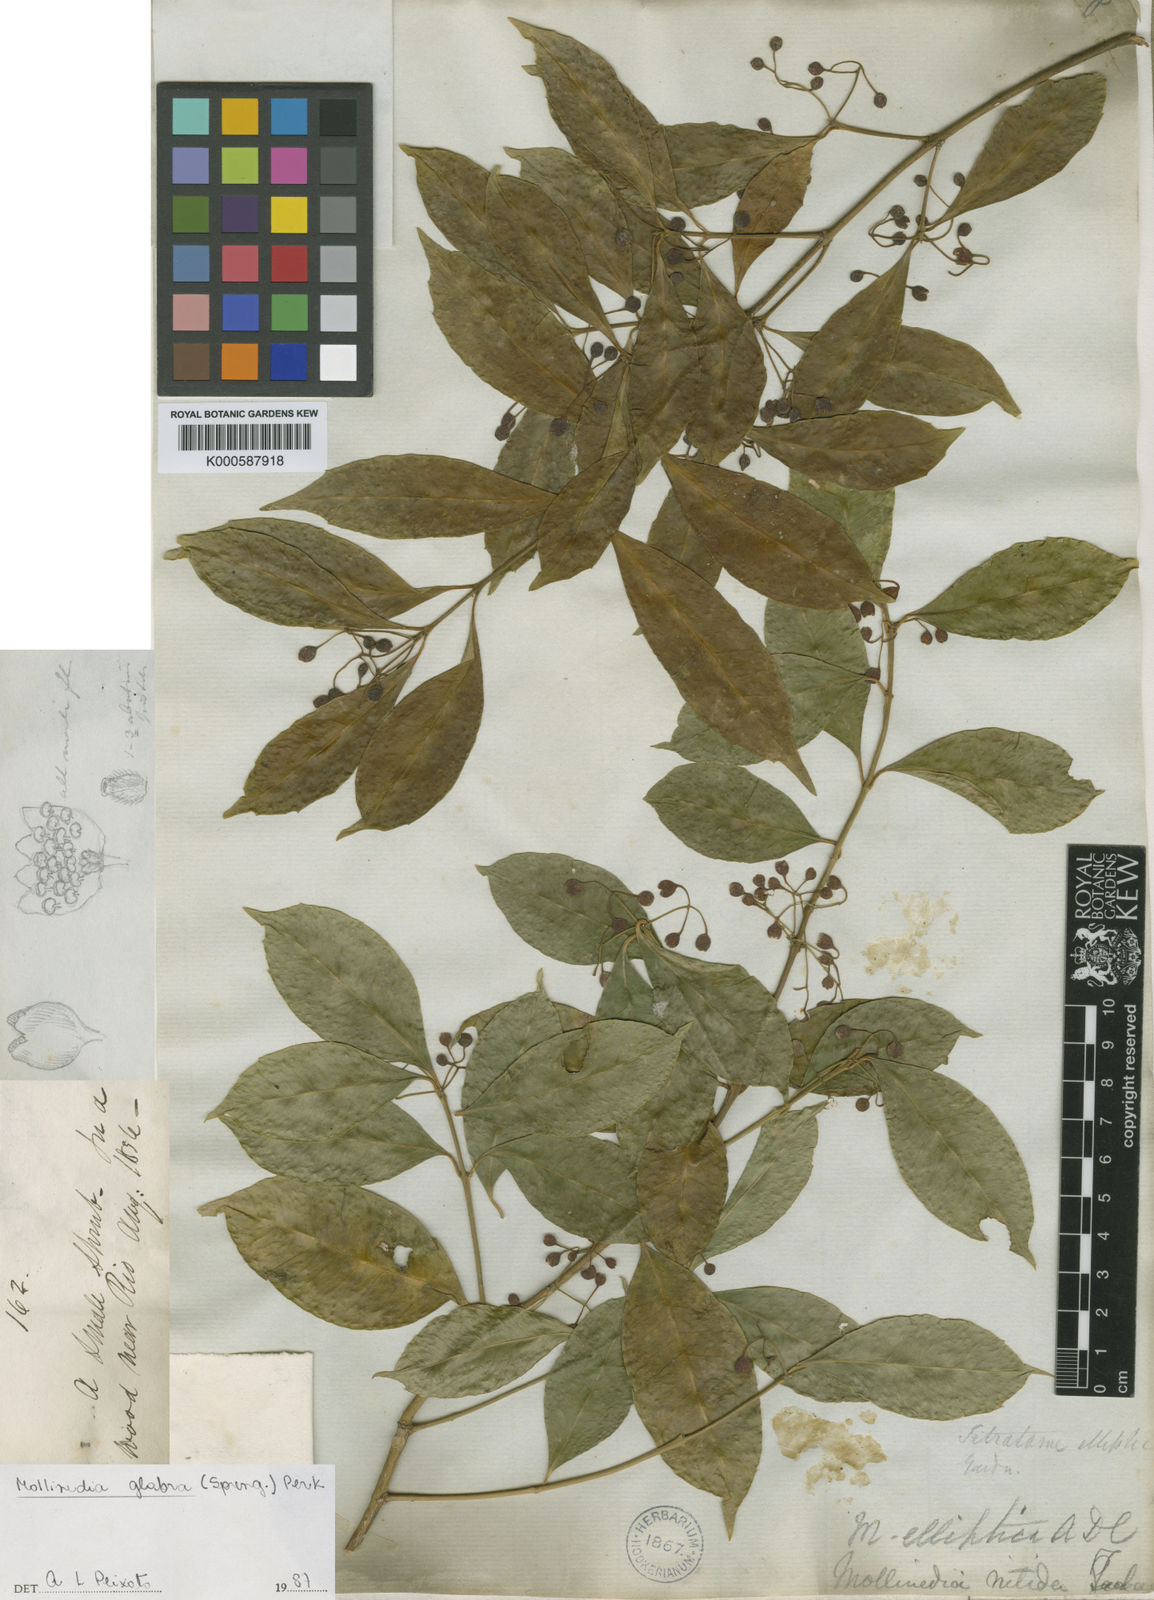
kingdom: Plantae
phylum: Tracheophyta
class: Magnoliopsida
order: Laurales
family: Monimiaceae
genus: Mollinedia
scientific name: Mollinedia elliptica
